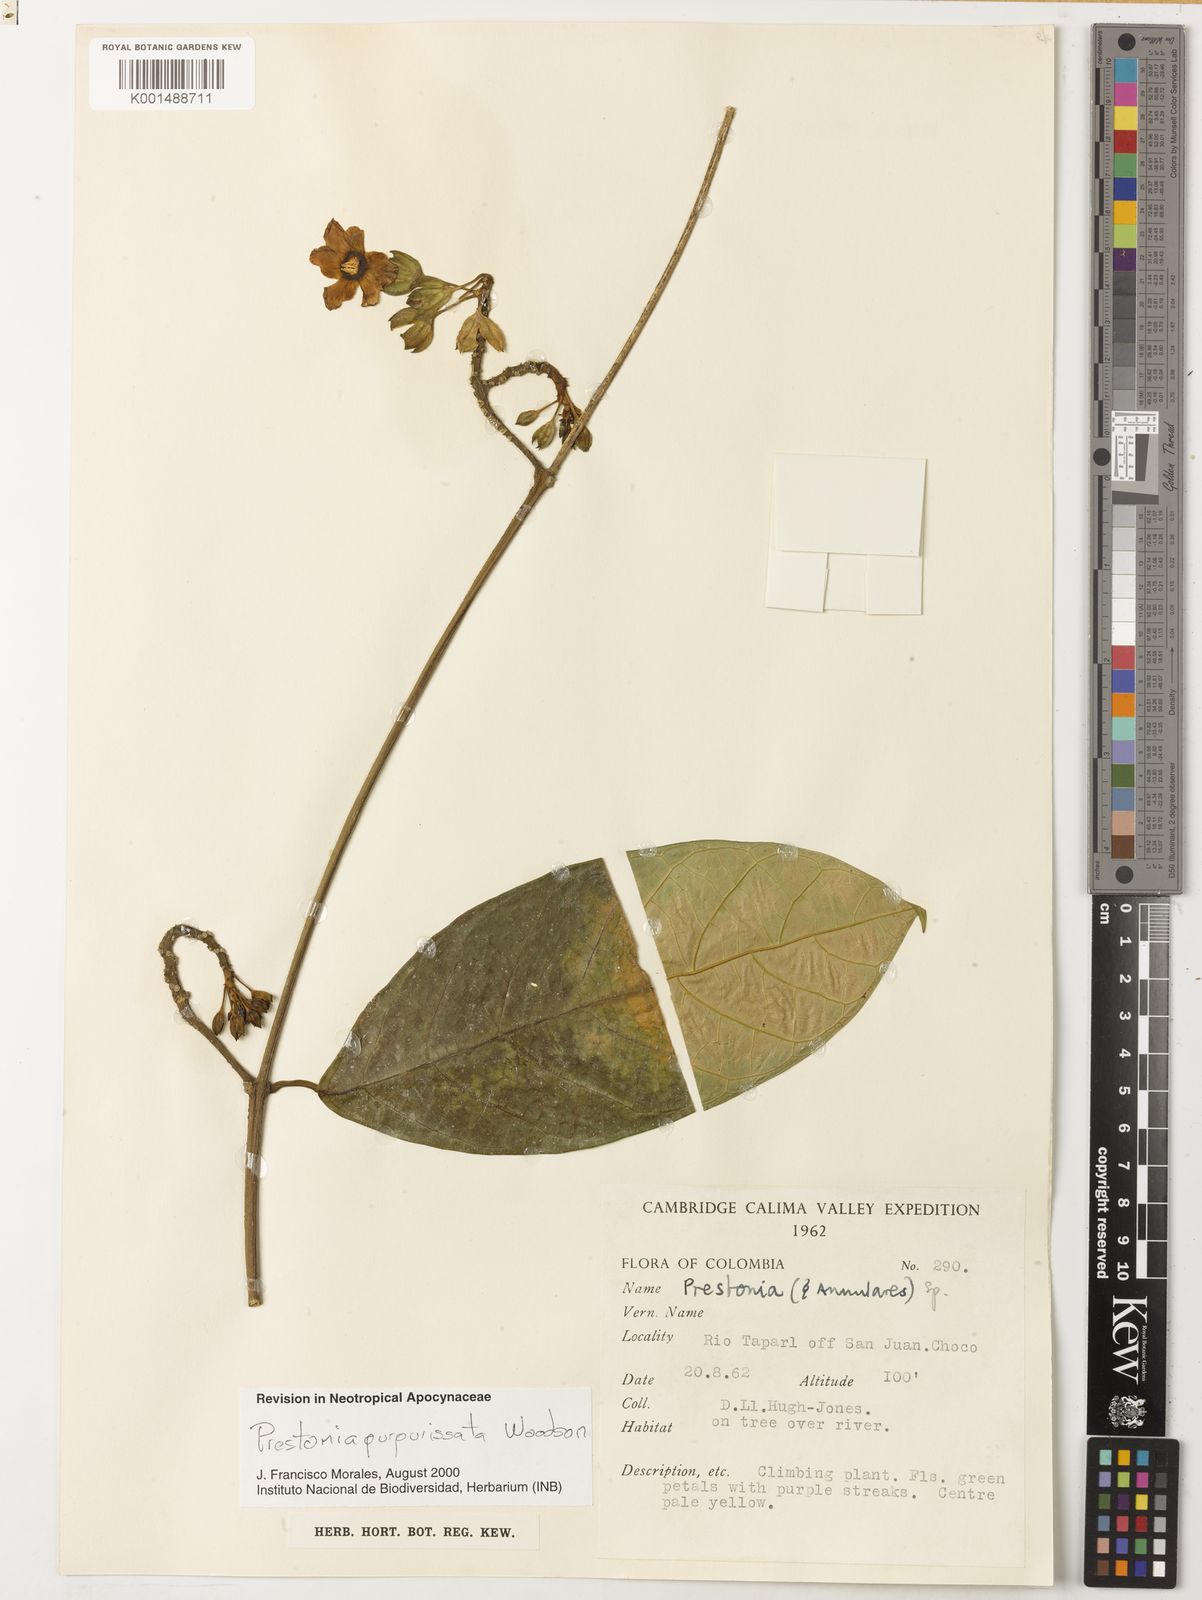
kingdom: Plantae
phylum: Tracheophyta
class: Magnoliopsida
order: Gentianales
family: Apocynaceae
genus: Prestonia
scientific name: Prestonia annularis
